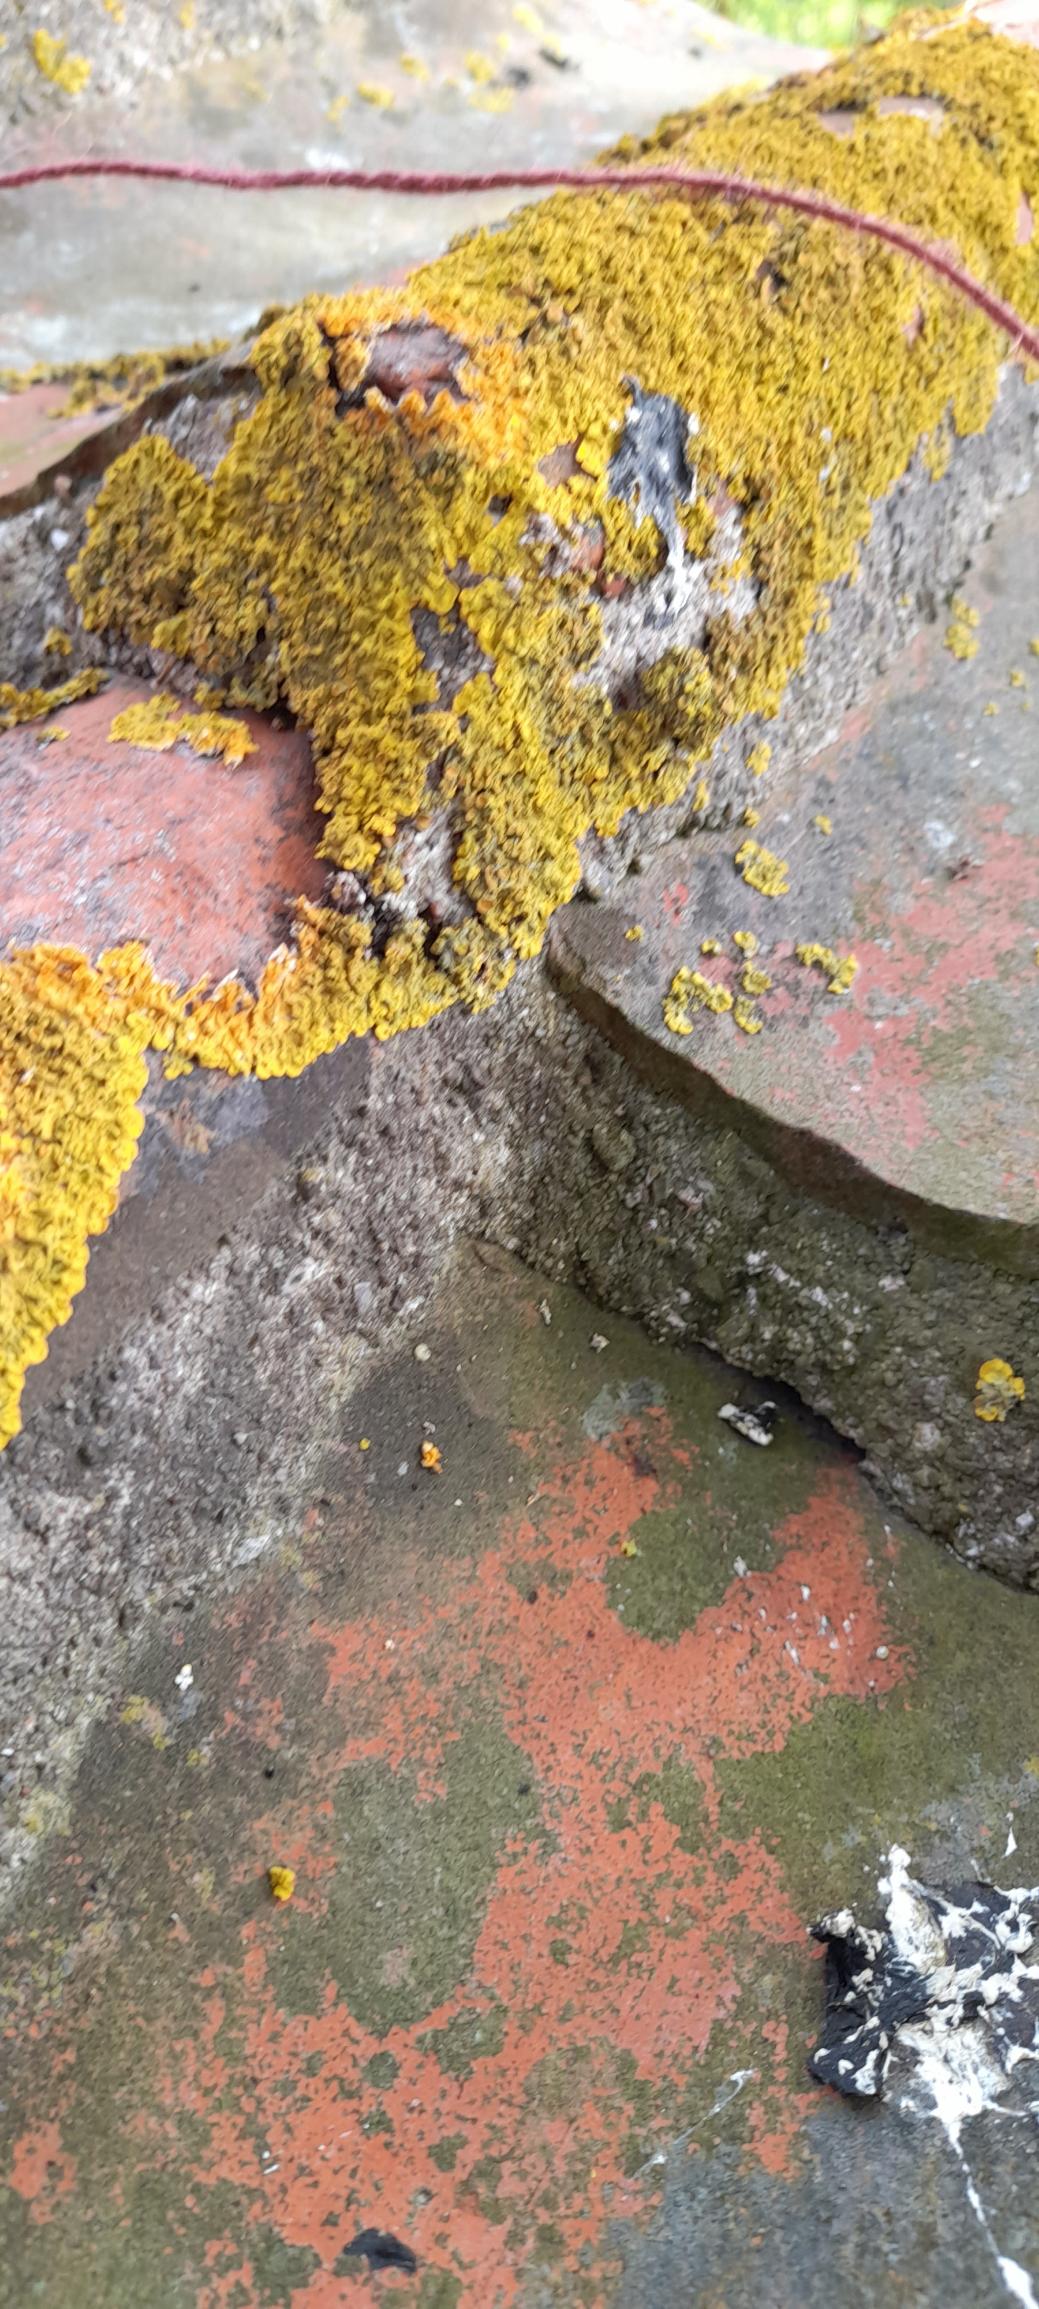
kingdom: Fungi
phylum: Ascomycota
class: Lecanoromycetes
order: Teloschistales
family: Teloschistaceae
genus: Xanthoria
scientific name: Xanthoria parietina
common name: Almindelig væggelav
